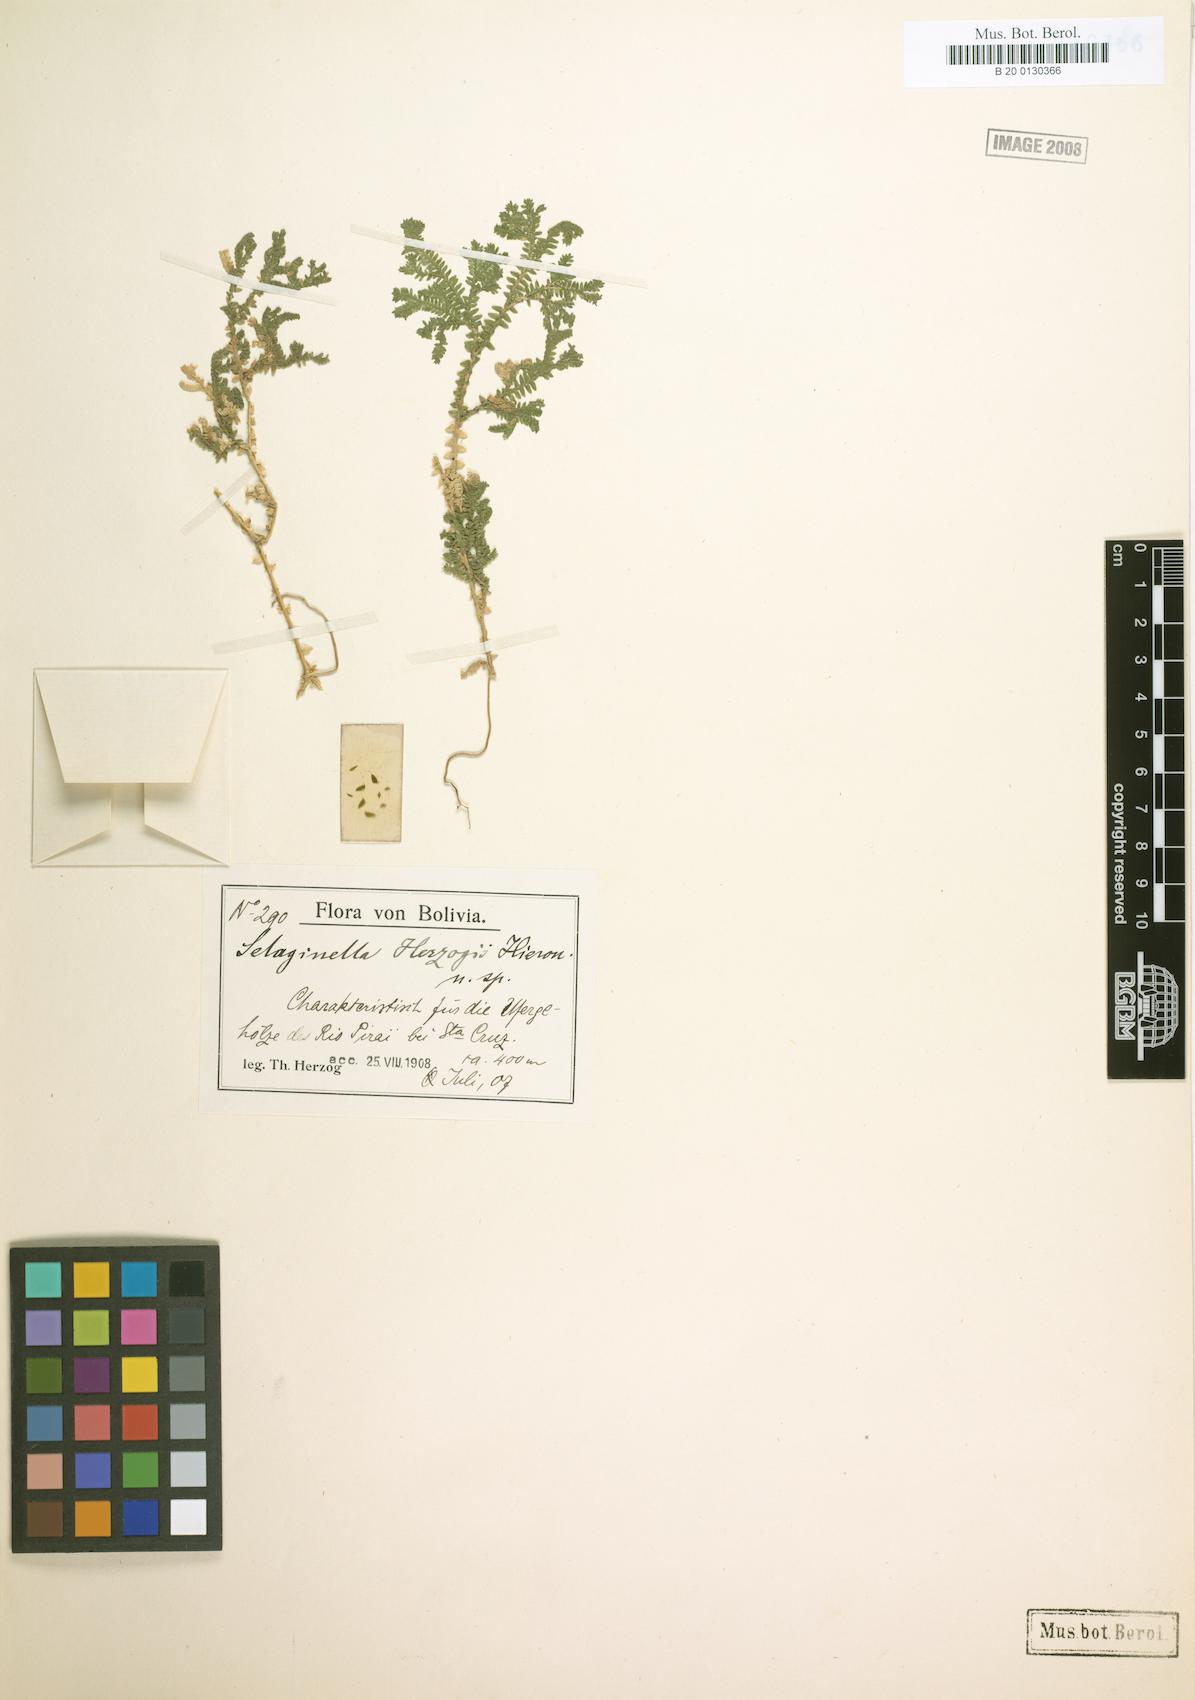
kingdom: Plantae
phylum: Tracheophyta
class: Lycopodiopsida
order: Selaginellales
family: Selaginellaceae
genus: Selaginella
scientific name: Selaginella
